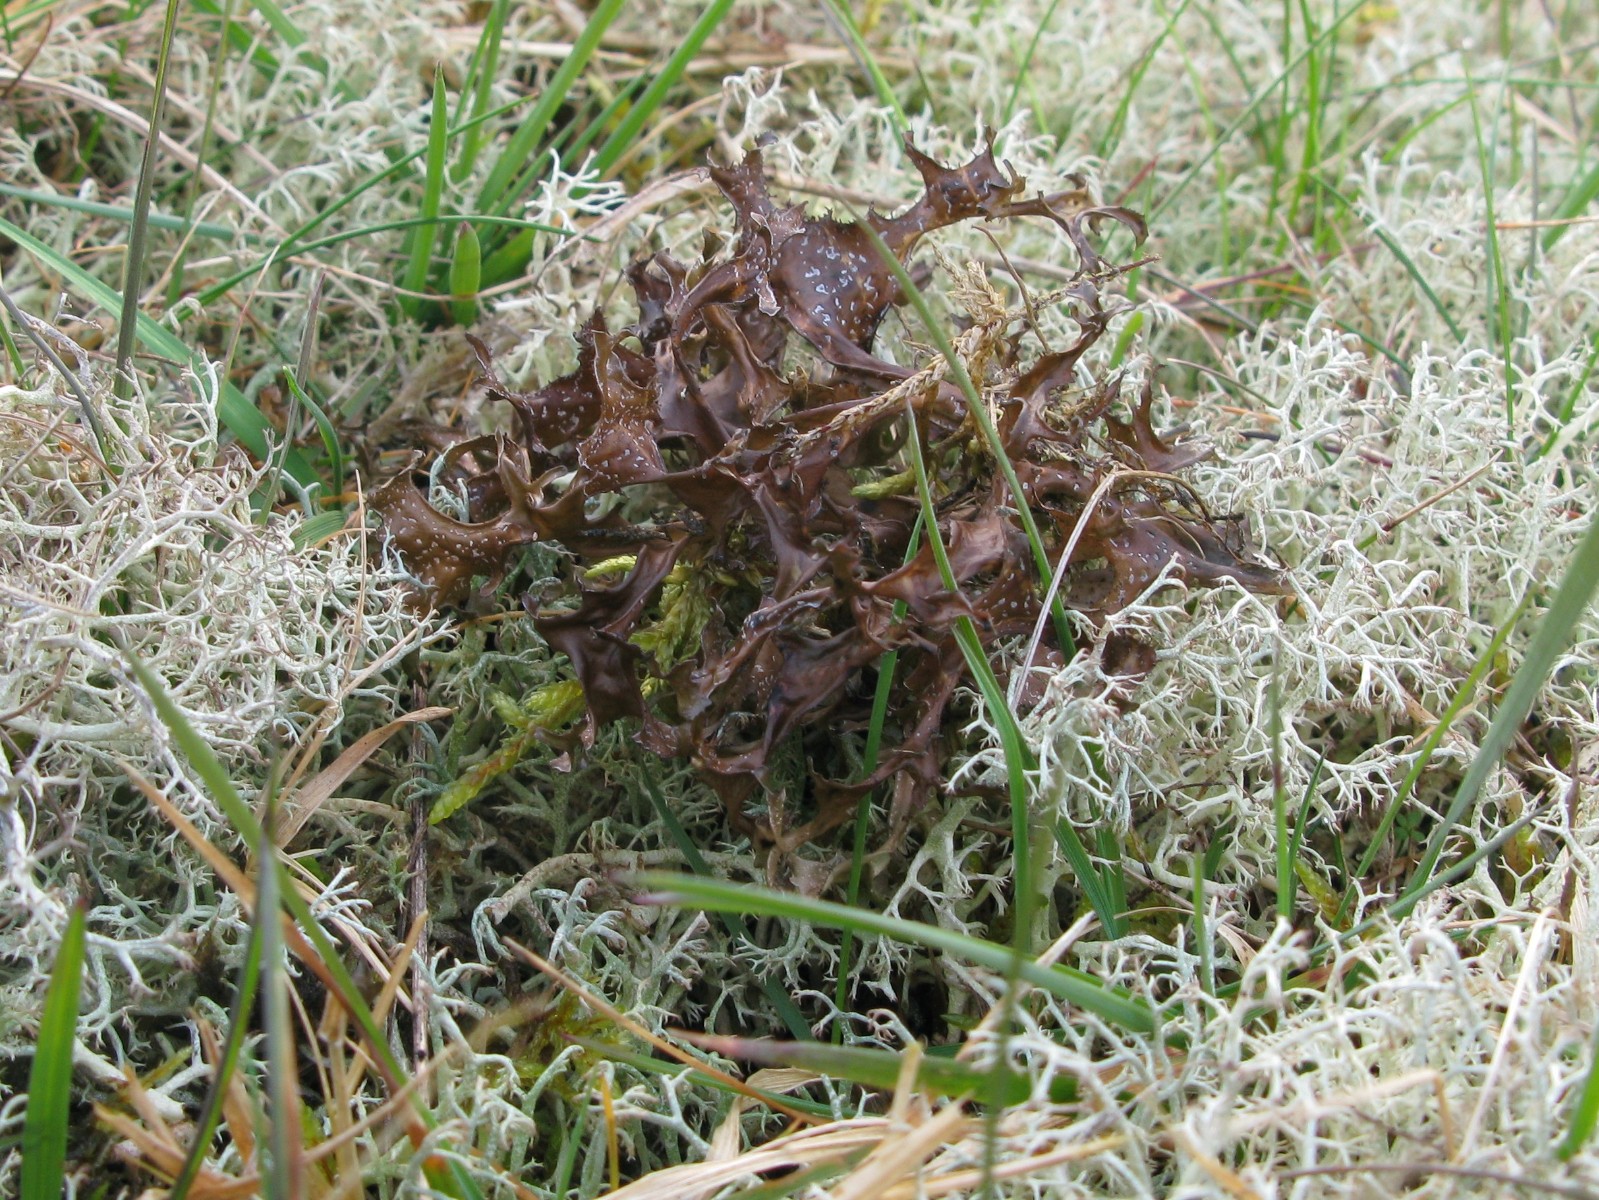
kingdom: Fungi
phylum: Ascomycota
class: Lecanoromycetes
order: Lecanorales
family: Parmeliaceae
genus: Cetraria
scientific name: Cetraria islandica
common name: islandsk kruslav
